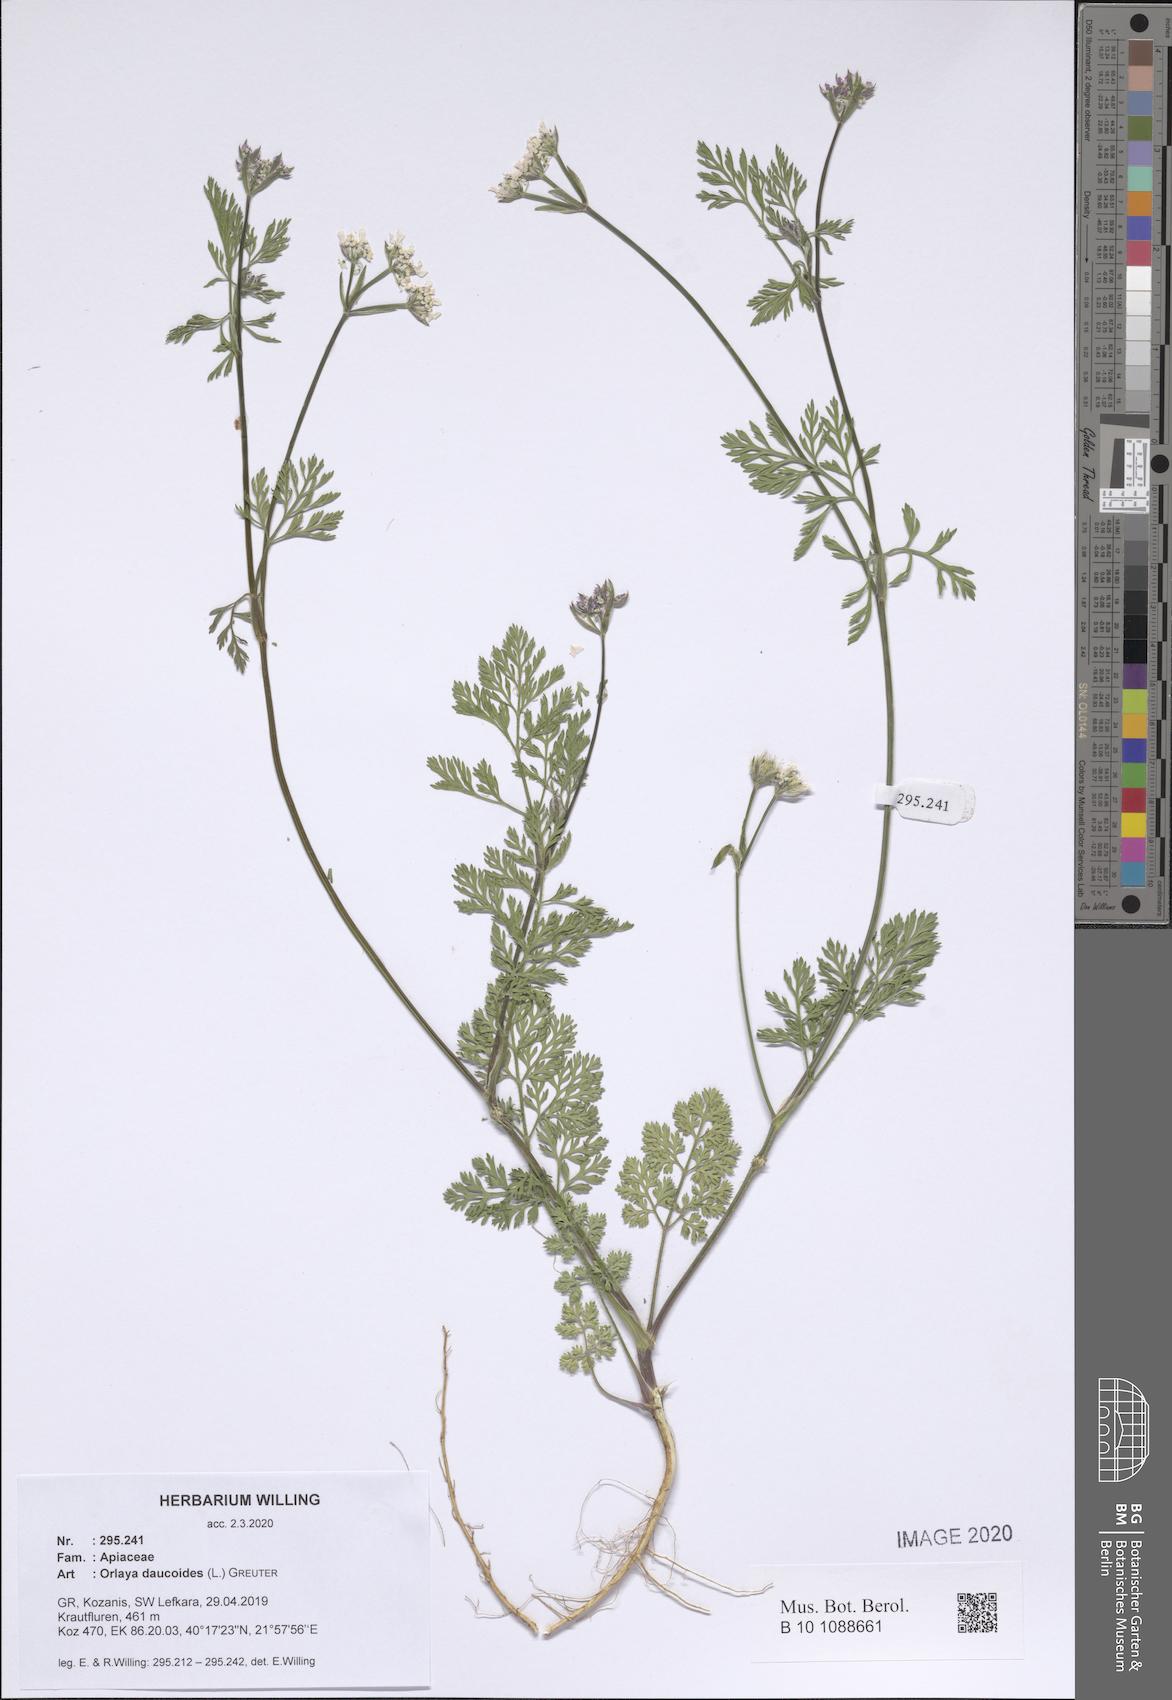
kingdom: Plantae
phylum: Tracheophyta
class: Magnoliopsida
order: Apiales
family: Apiaceae
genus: Orlaya
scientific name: Orlaya daucoides
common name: Flat-fruit orlaya
